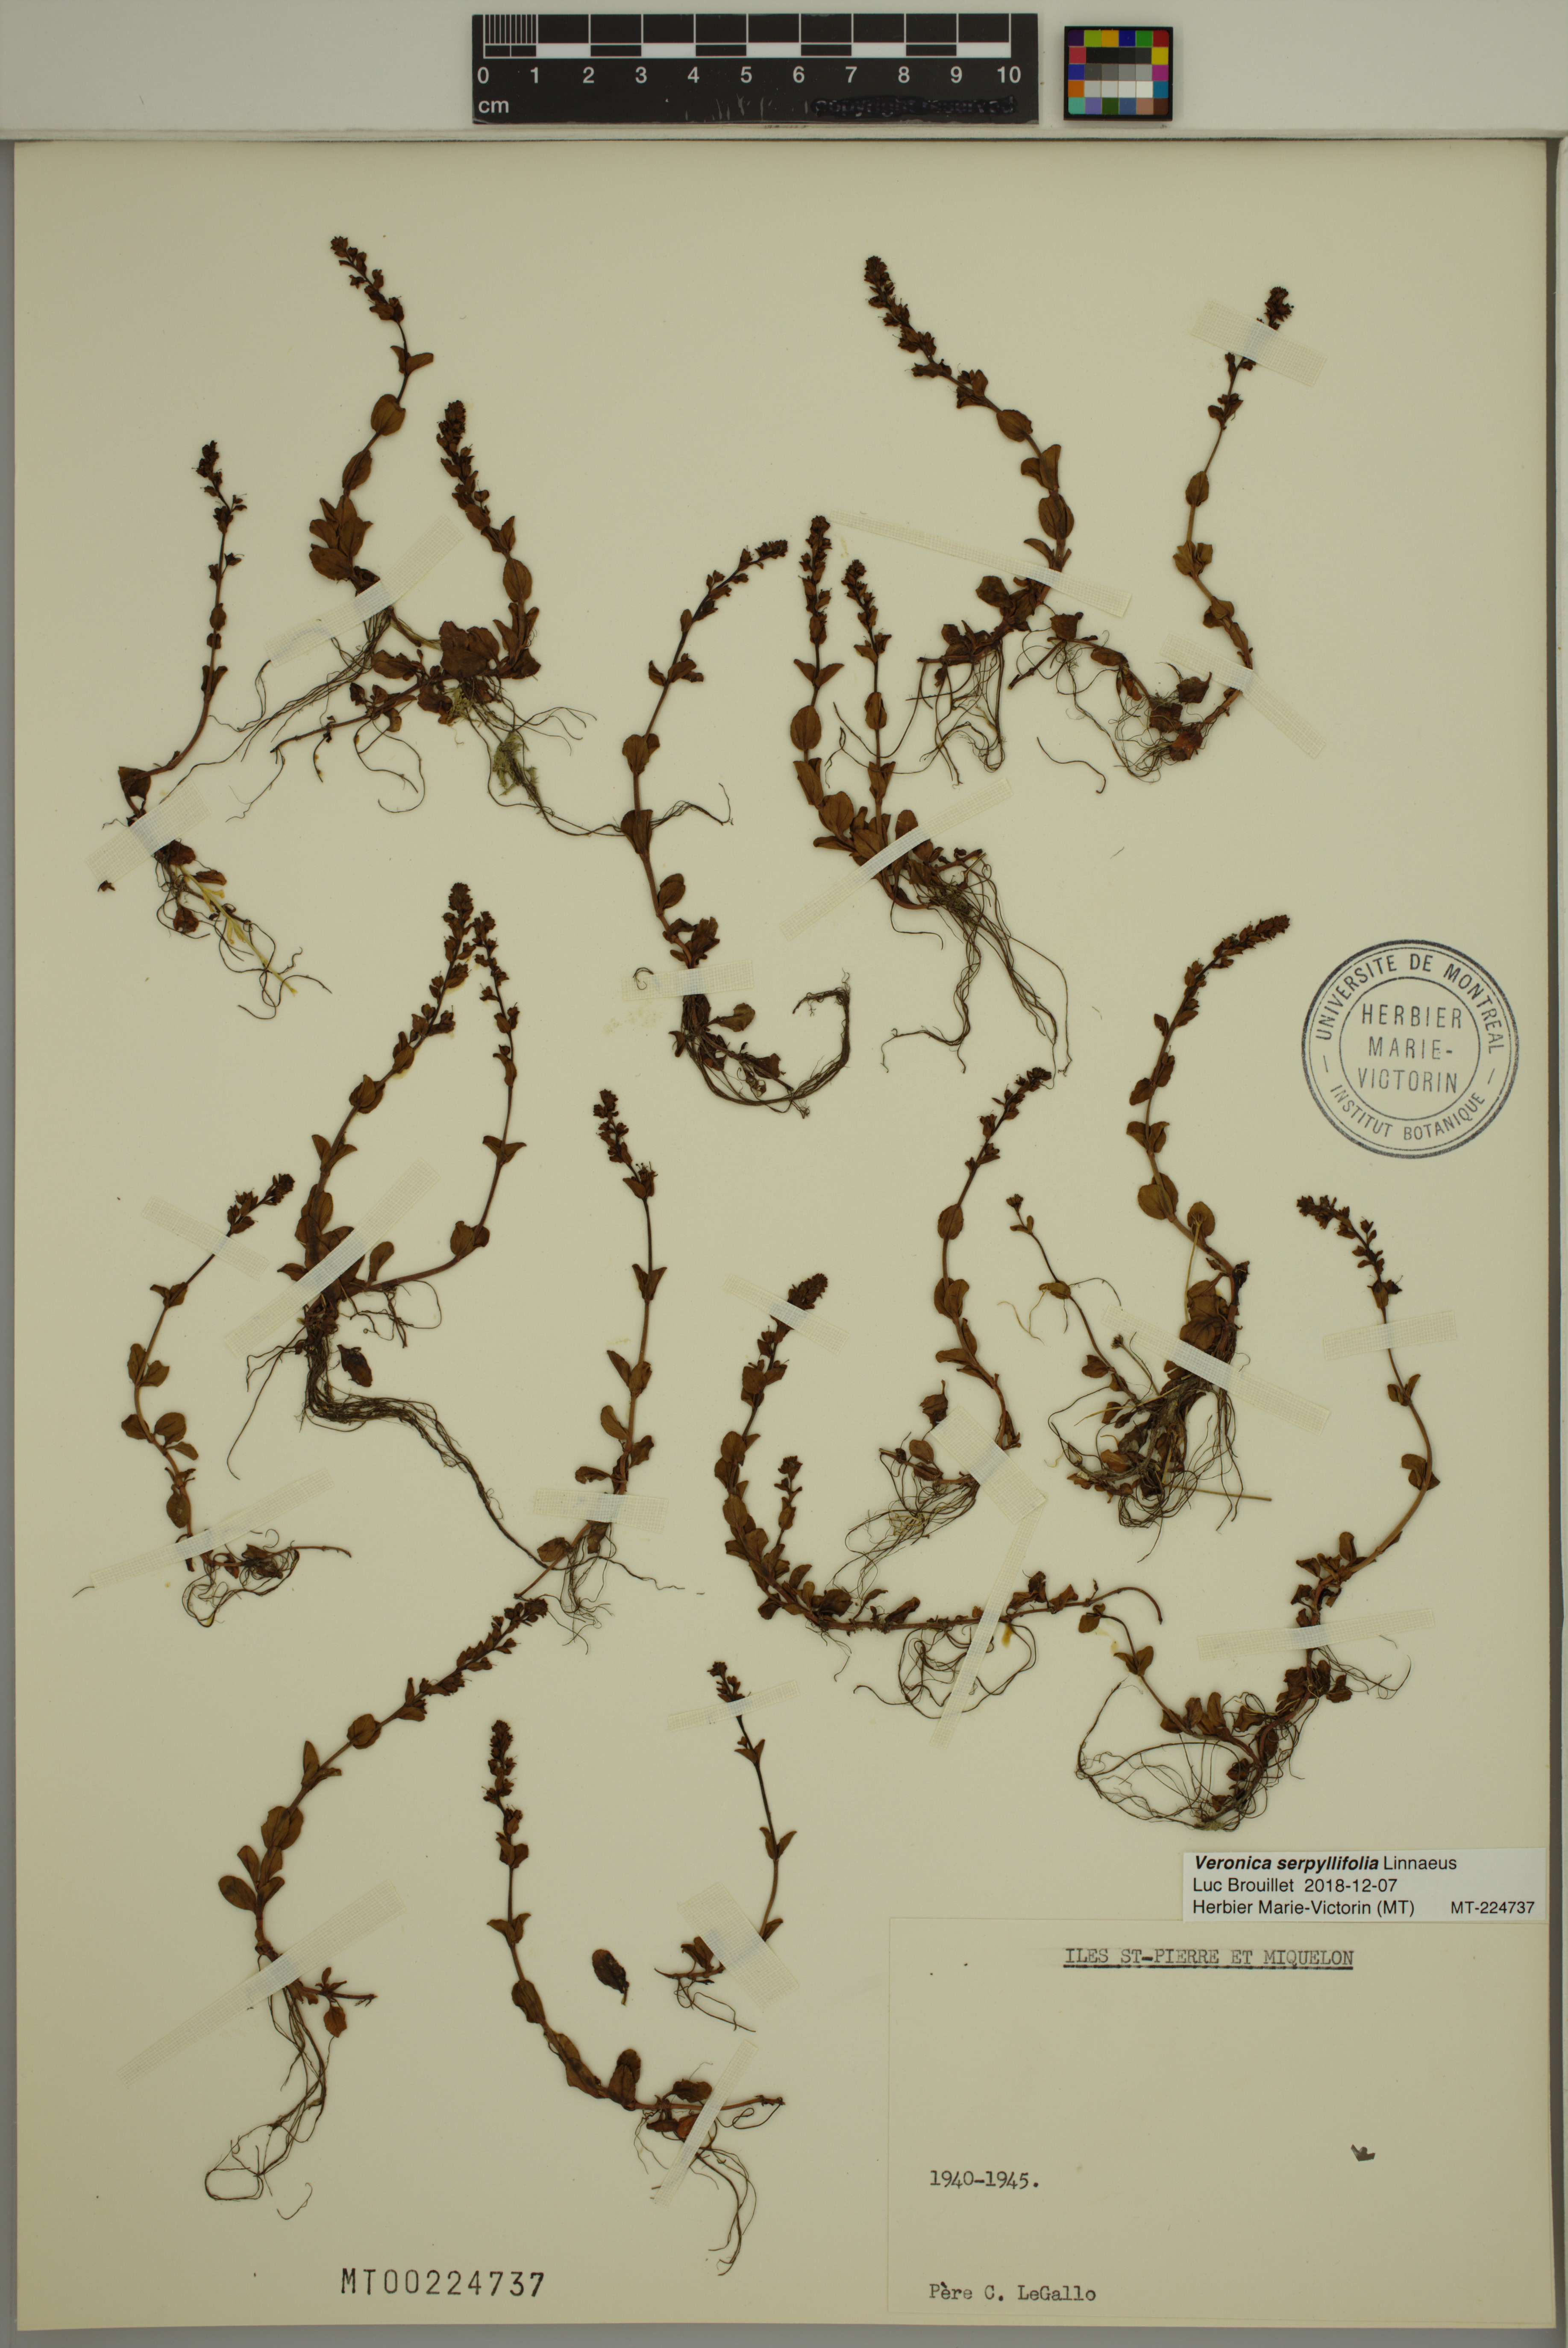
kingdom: Plantae
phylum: Tracheophyta
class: Magnoliopsida
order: Lamiales
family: Plantaginaceae
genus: Veronica
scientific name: Veronica serpyllifolia
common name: Thyme-leaved speedwell
